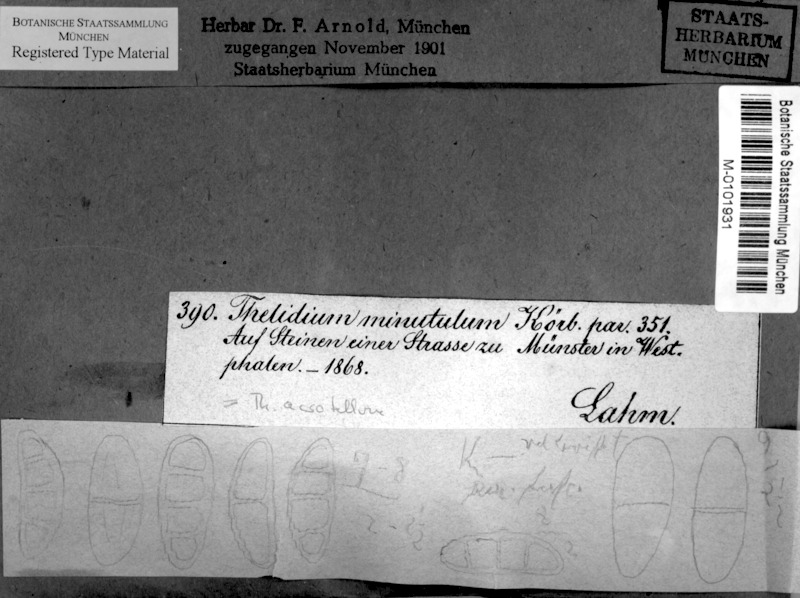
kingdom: Fungi
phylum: Ascomycota
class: Eurotiomycetes
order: Verrucariales
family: Verrucariaceae
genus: Thelidium
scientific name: Thelidium minutulum
